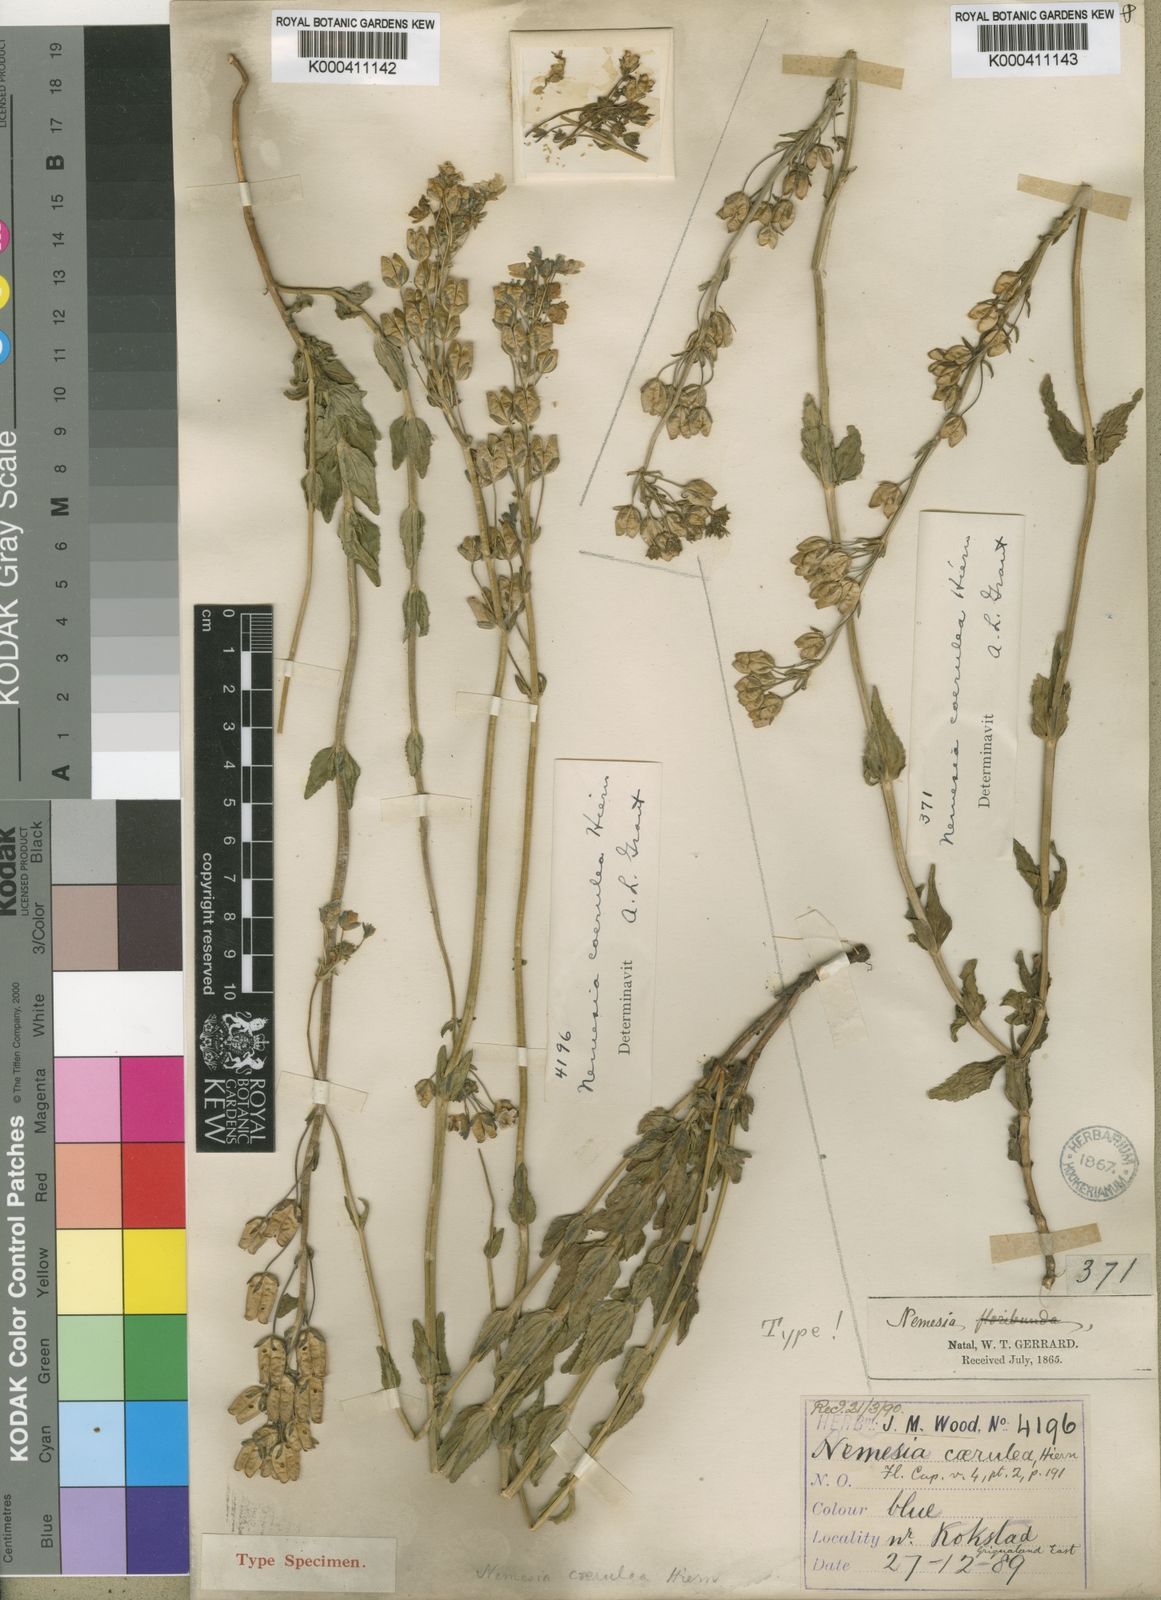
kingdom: Plantae
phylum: Tracheophyta
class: Magnoliopsida
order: Lamiales
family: Scrophulariaceae
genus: Nemesia
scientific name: Nemesia caerulea
